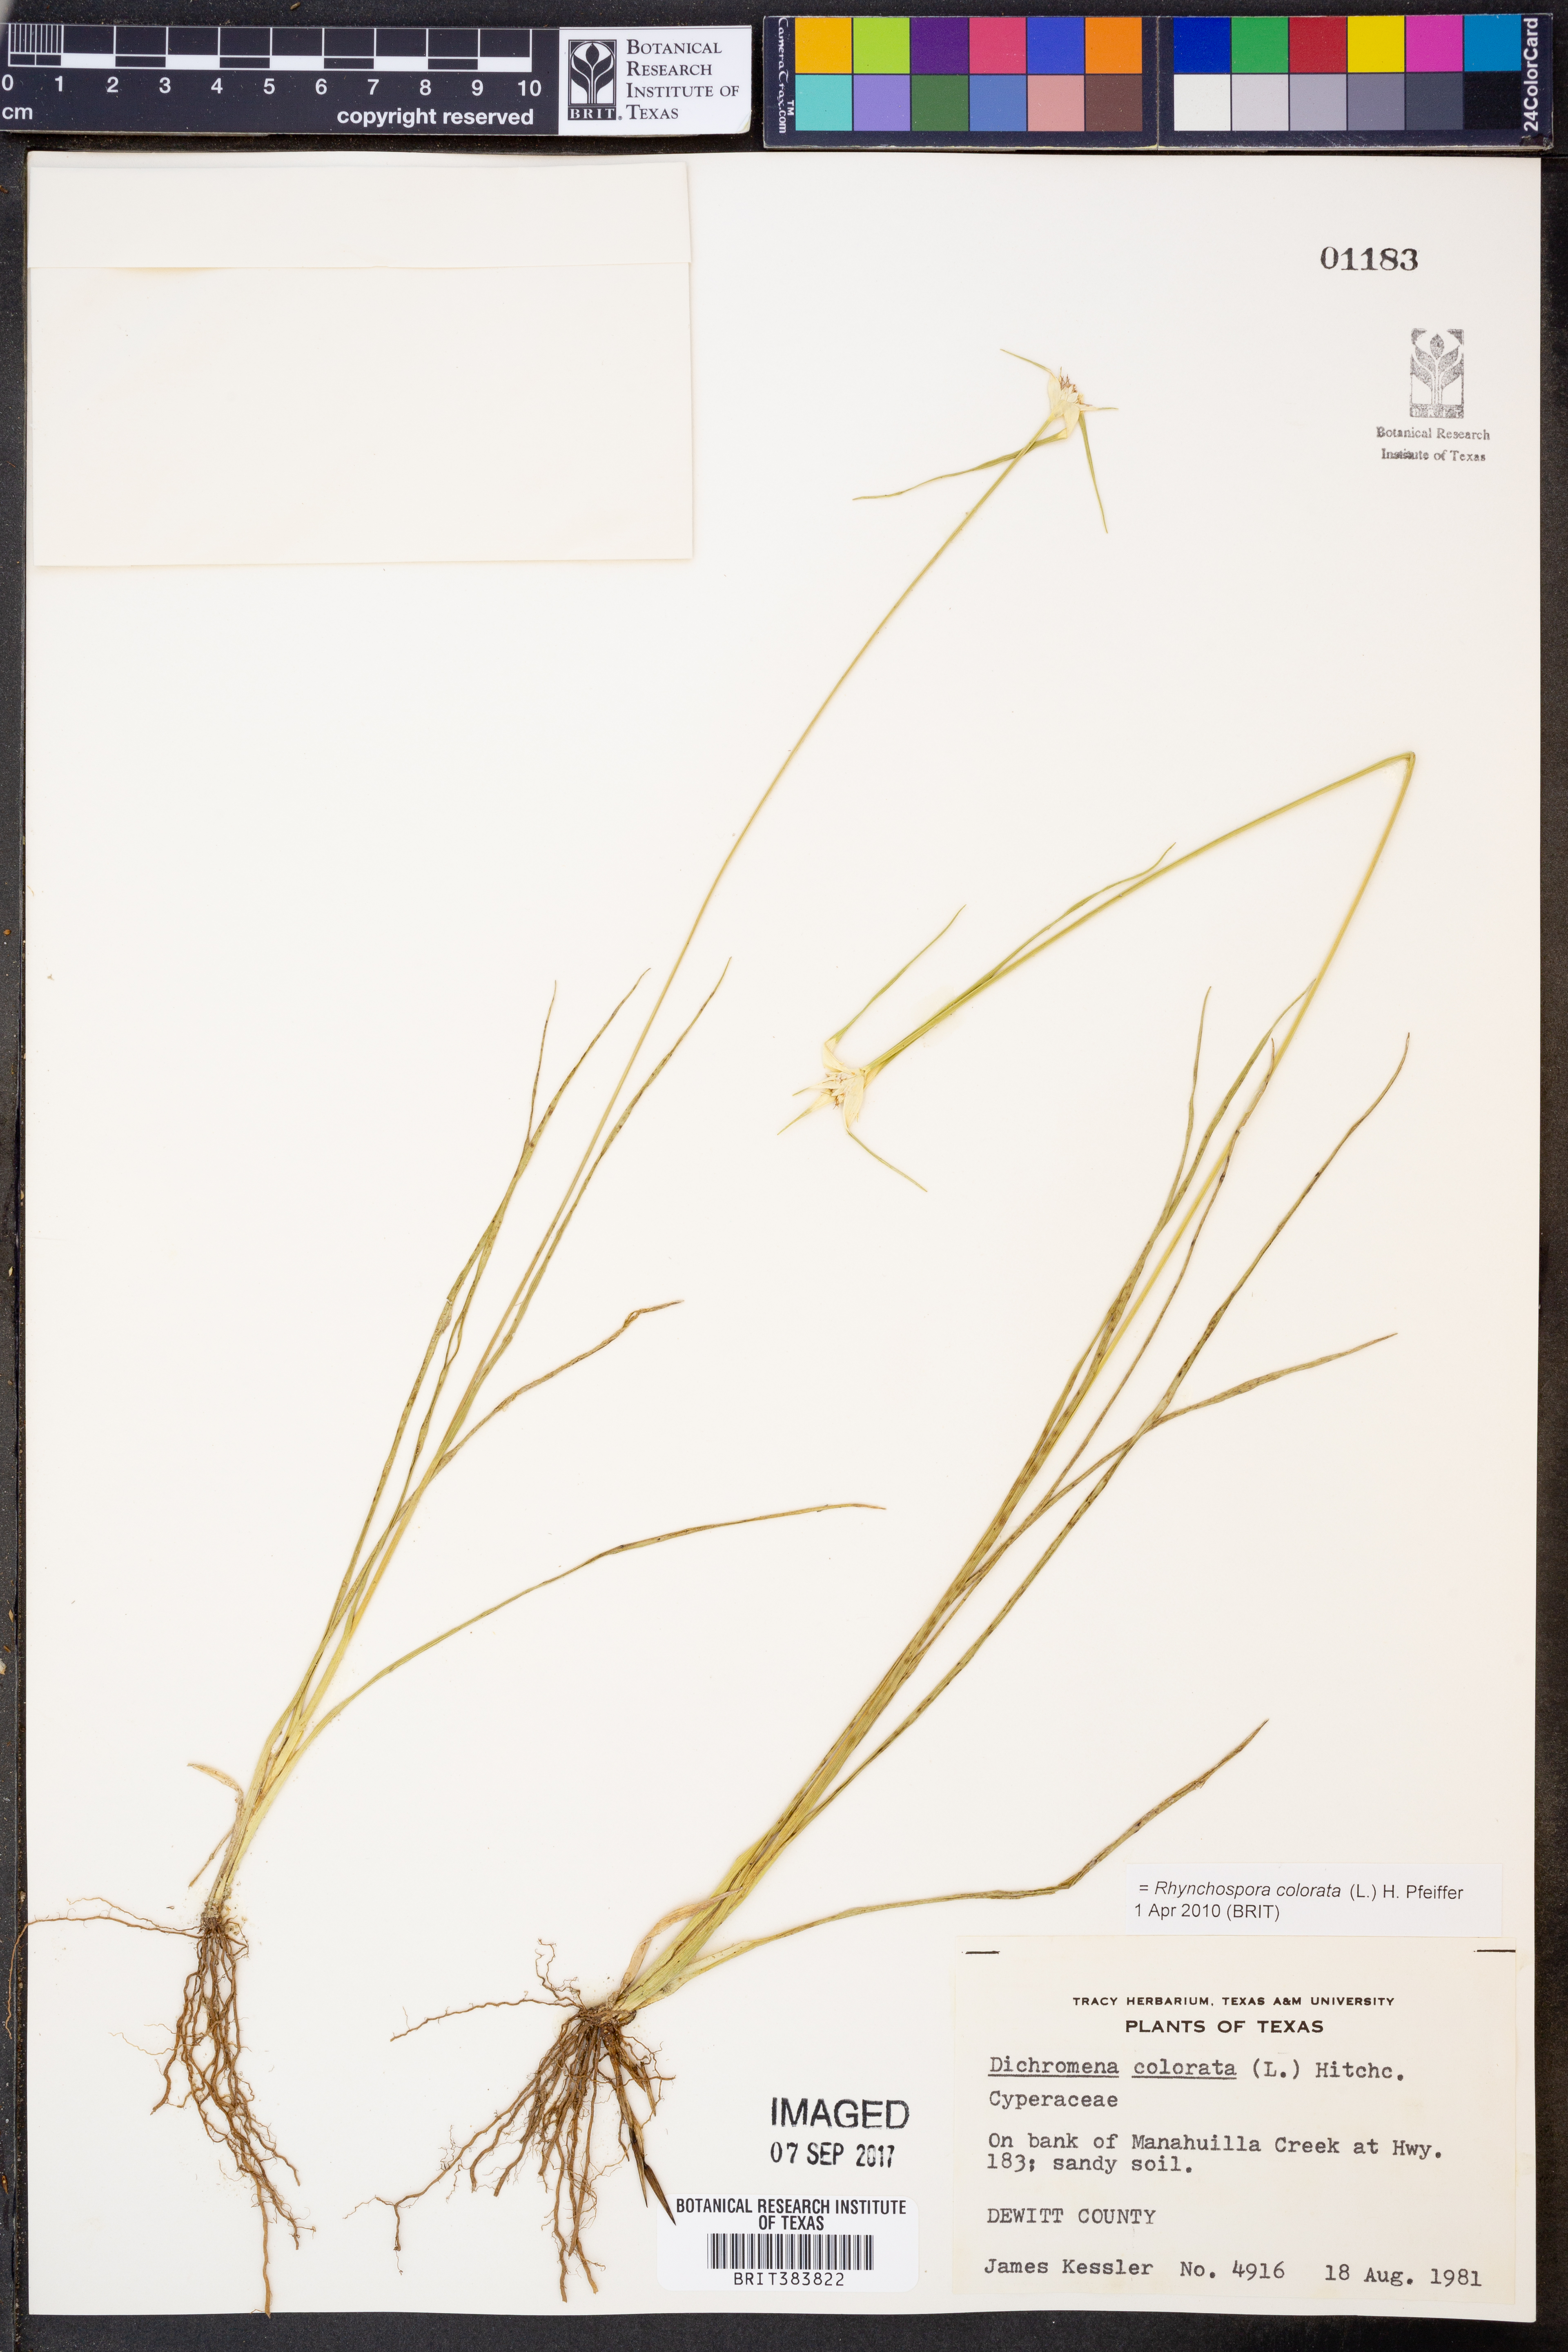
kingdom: Plantae
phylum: Tracheophyta
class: Liliopsida
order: Poales
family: Cyperaceae
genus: Rhynchospora
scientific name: Rhynchospora colorata
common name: Star sedge
